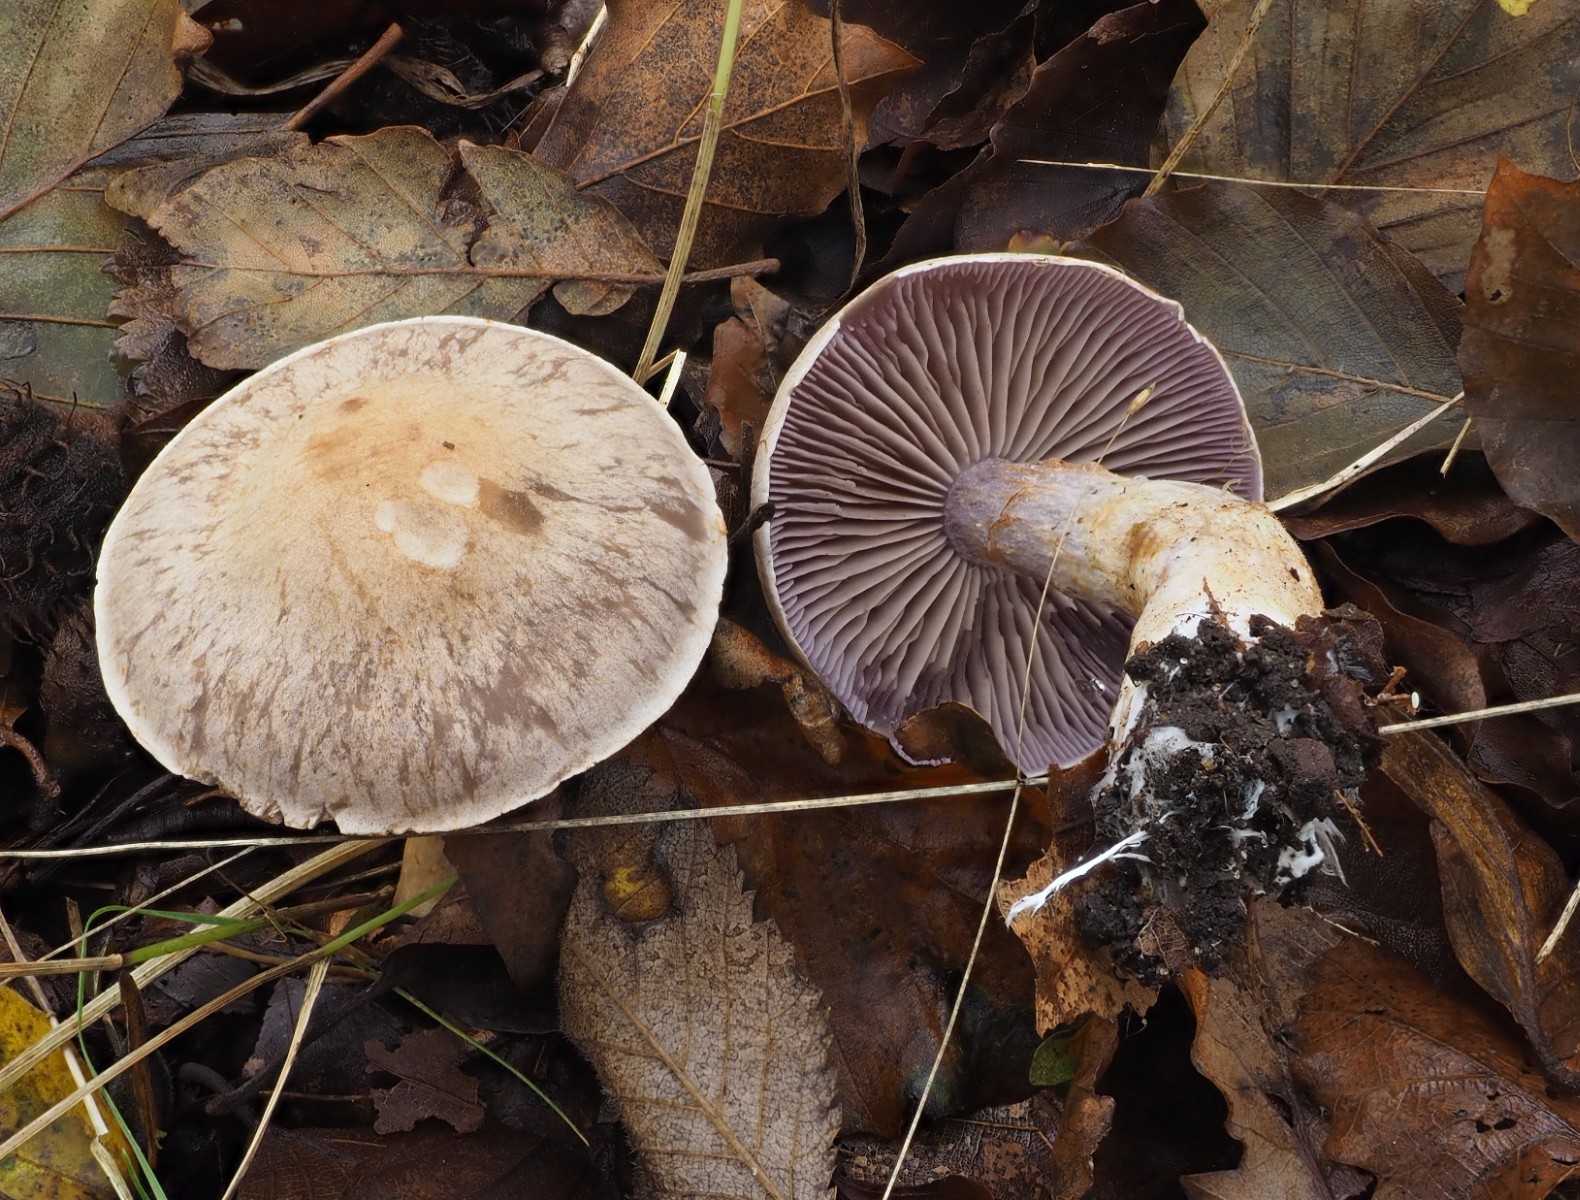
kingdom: Fungi
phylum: Basidiomycota
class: Agaricomycetes
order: Agaricales
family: Cortinariaceae
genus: Cortinarius
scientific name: Cortinarius
